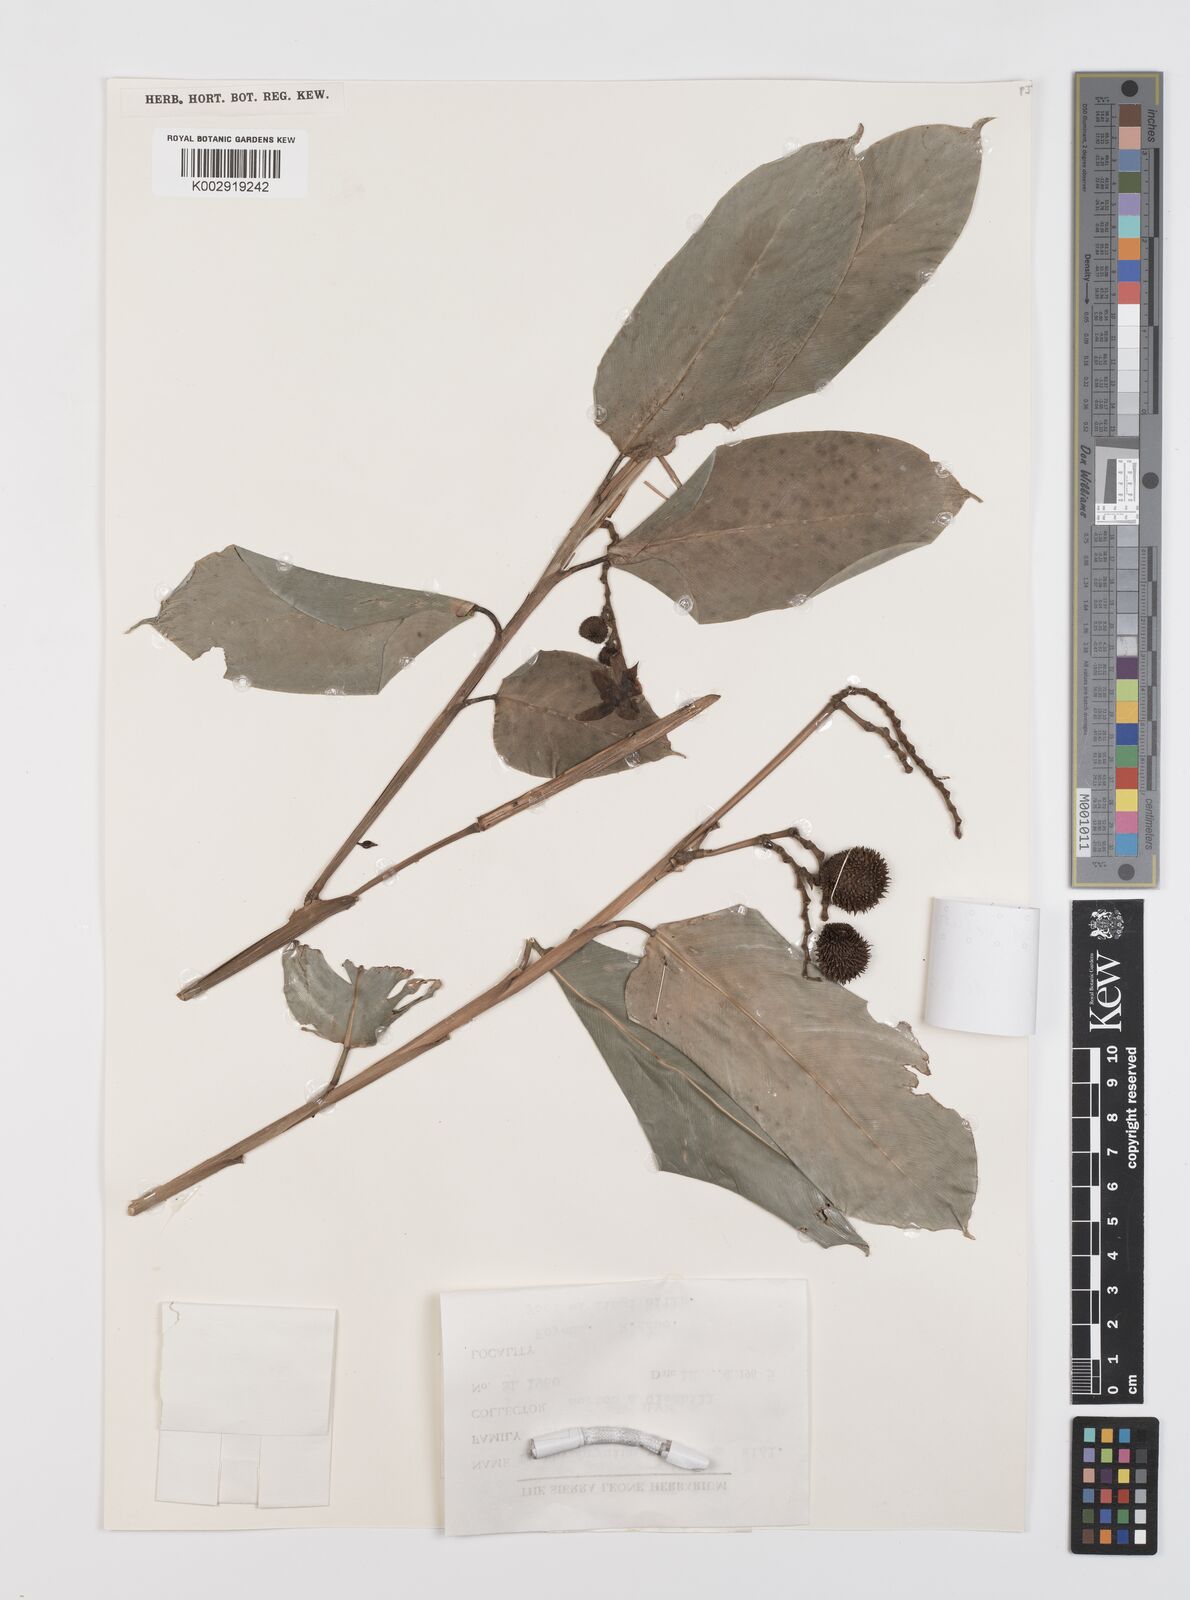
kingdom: Plantae
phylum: Tracheophyta
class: Liliopsida
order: Zingiberales
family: Marantaceae
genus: Hypselodelphys
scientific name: Hypselodelphys velutina
